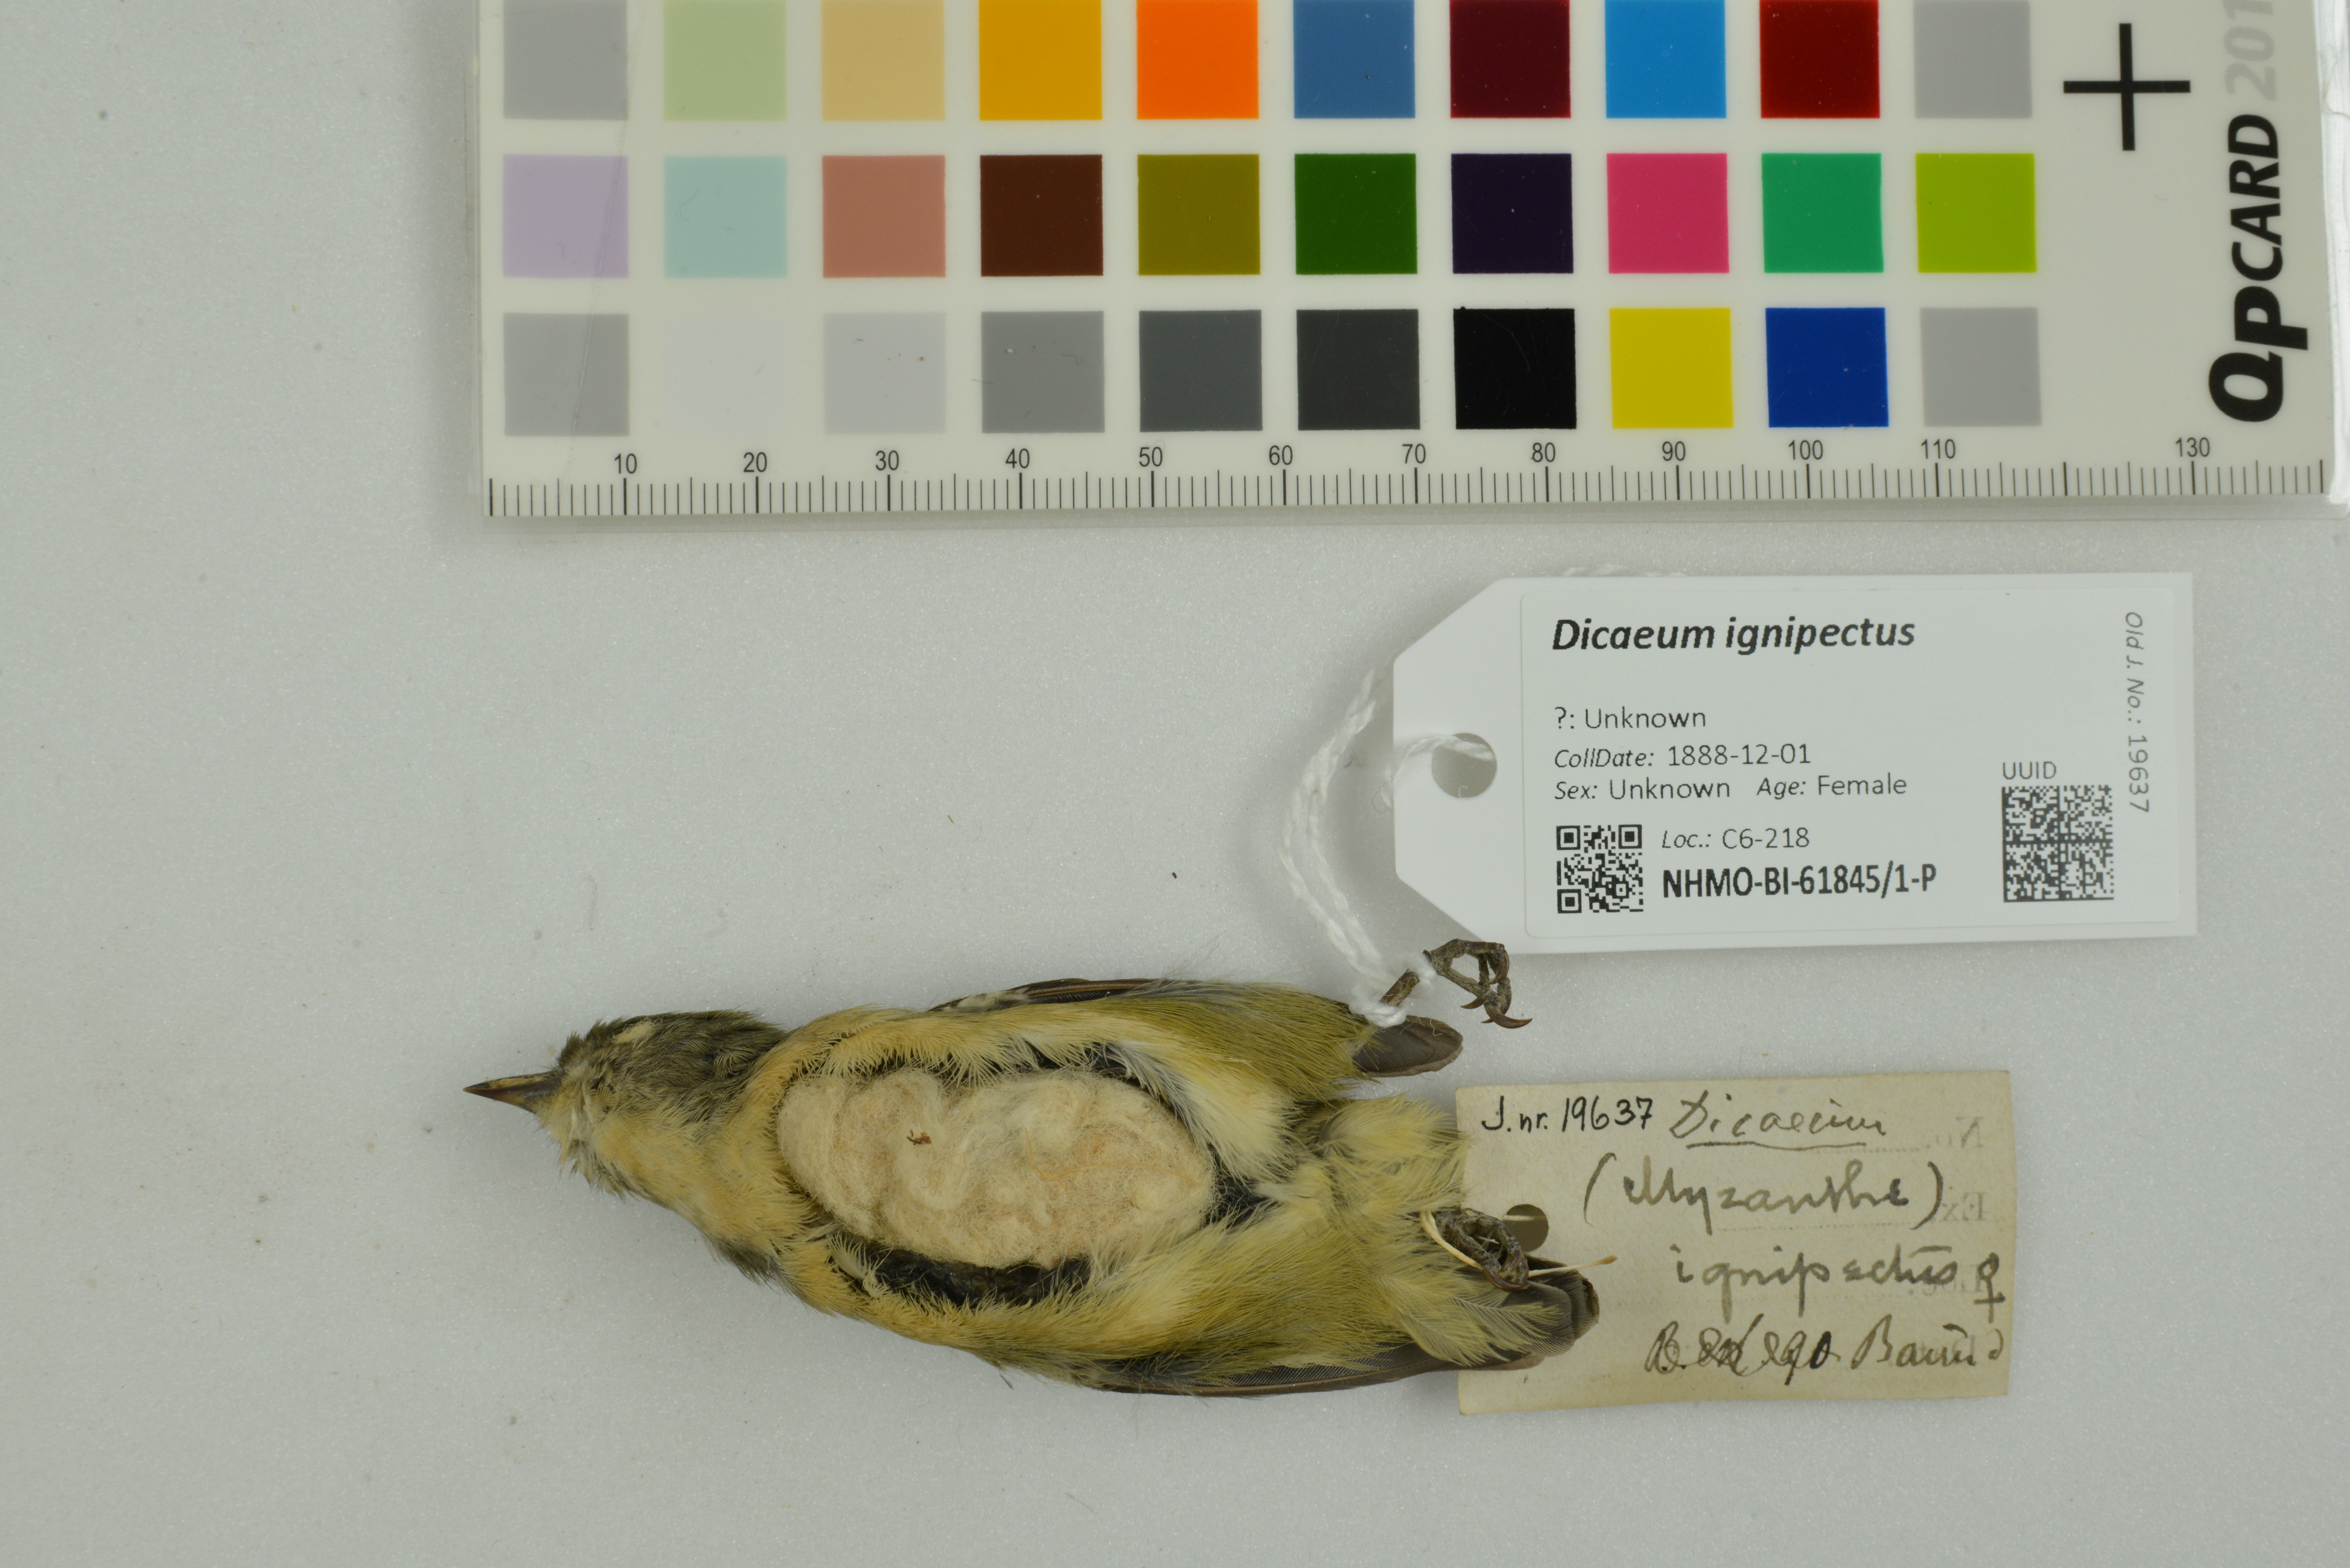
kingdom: Animalia
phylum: Chordata
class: Aves
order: Passeriformes
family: Dicaeidae
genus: Dicaeum
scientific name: Dicaeum ignipectus
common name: Fire-breasted flowerpecker
